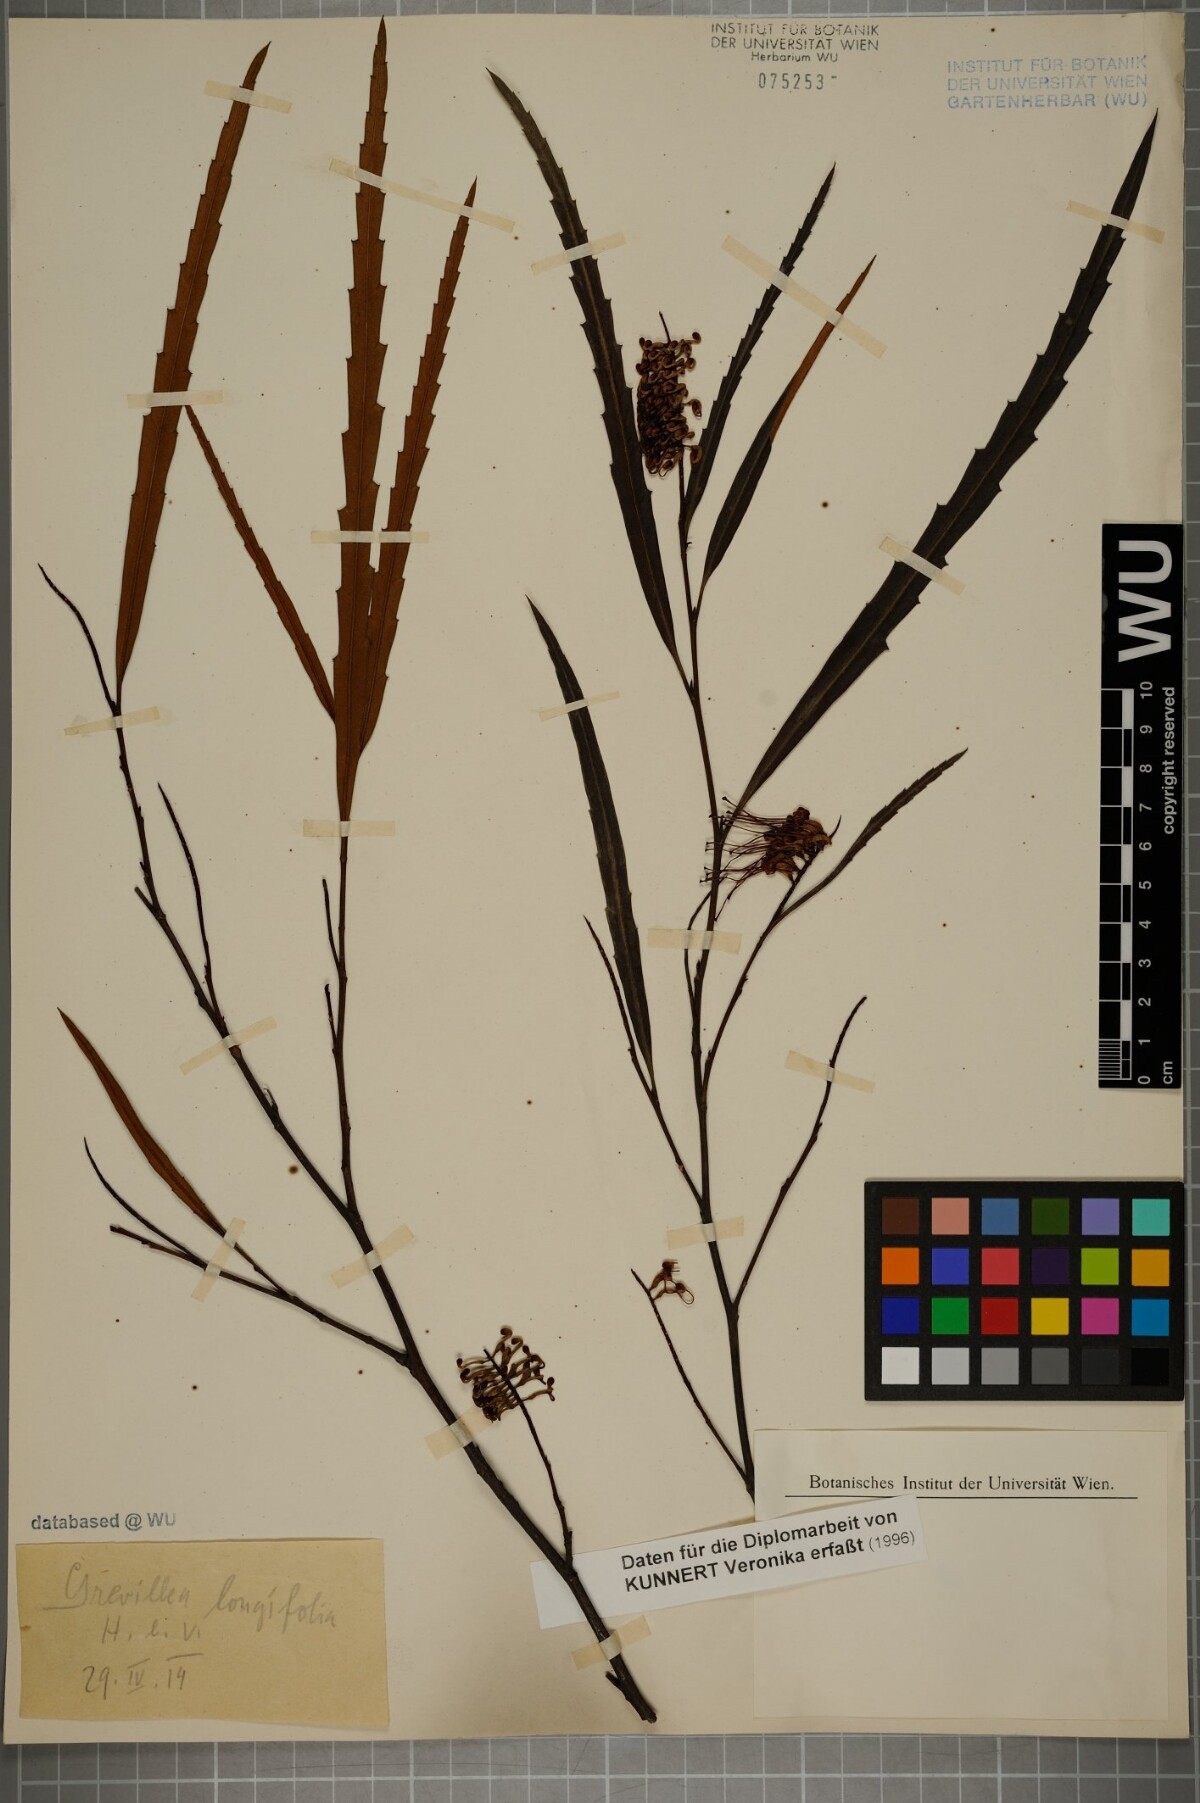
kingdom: Plantae
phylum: Tracheophyta
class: Magnoliopsida
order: Proteales
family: Proteaceae
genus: Grevillea
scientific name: Grevillea longifolia
